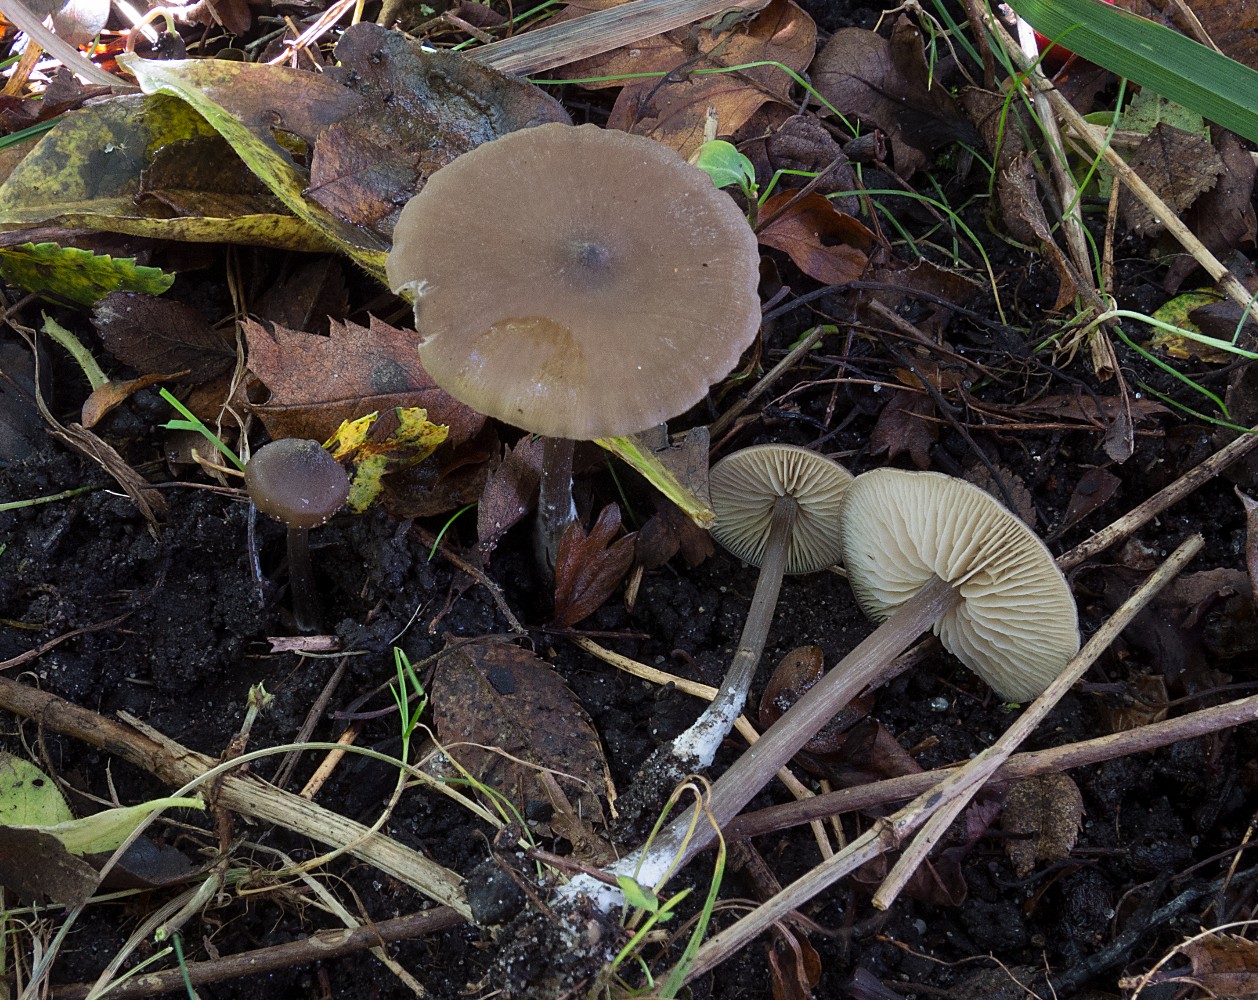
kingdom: Fungi
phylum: Basidiomycota
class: Agaricomycetes
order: Agaricales
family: Entolomataceae
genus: Entoloma
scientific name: Entoloma hebes
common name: krat-rødblad
